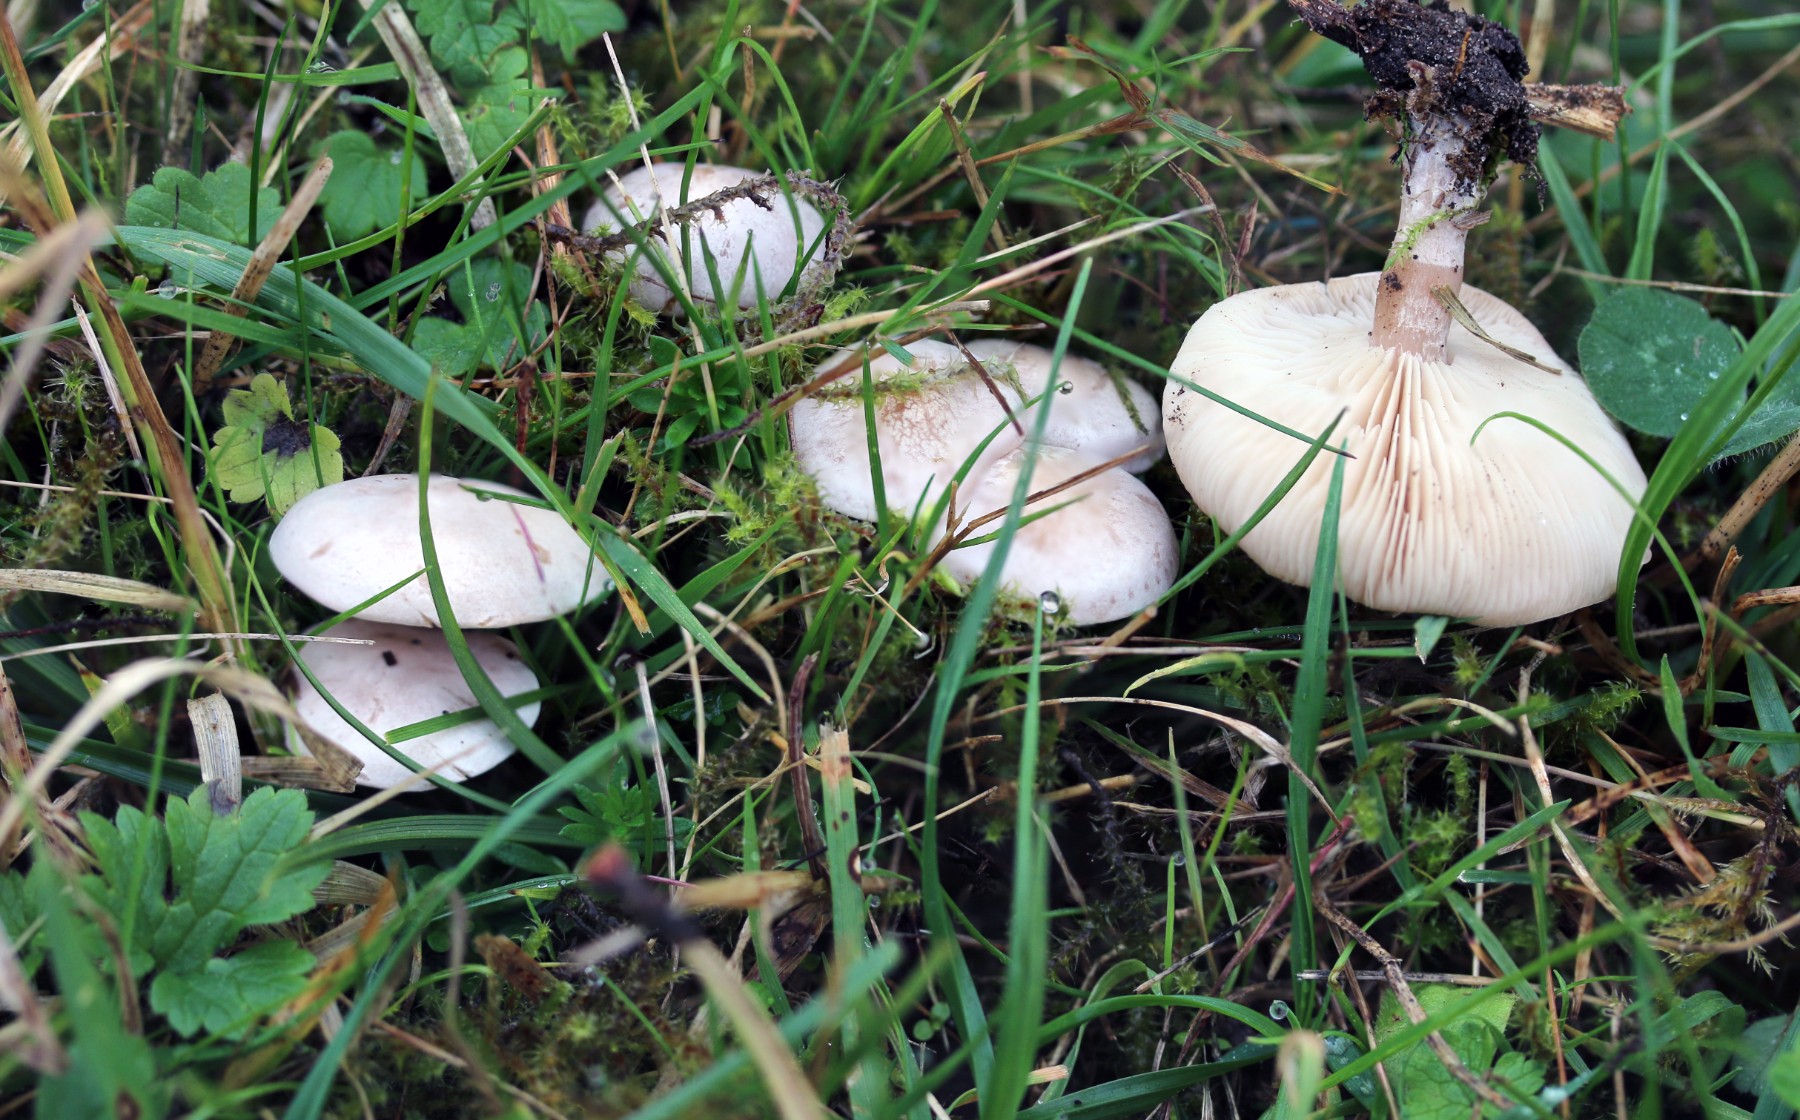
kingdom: Fungi
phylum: Basidiomycota
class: Agaricomycetes
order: Agaricales
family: Tricholomataceae
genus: Clitocybe
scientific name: Clitocybe rivulosa
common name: eng-tragthat
